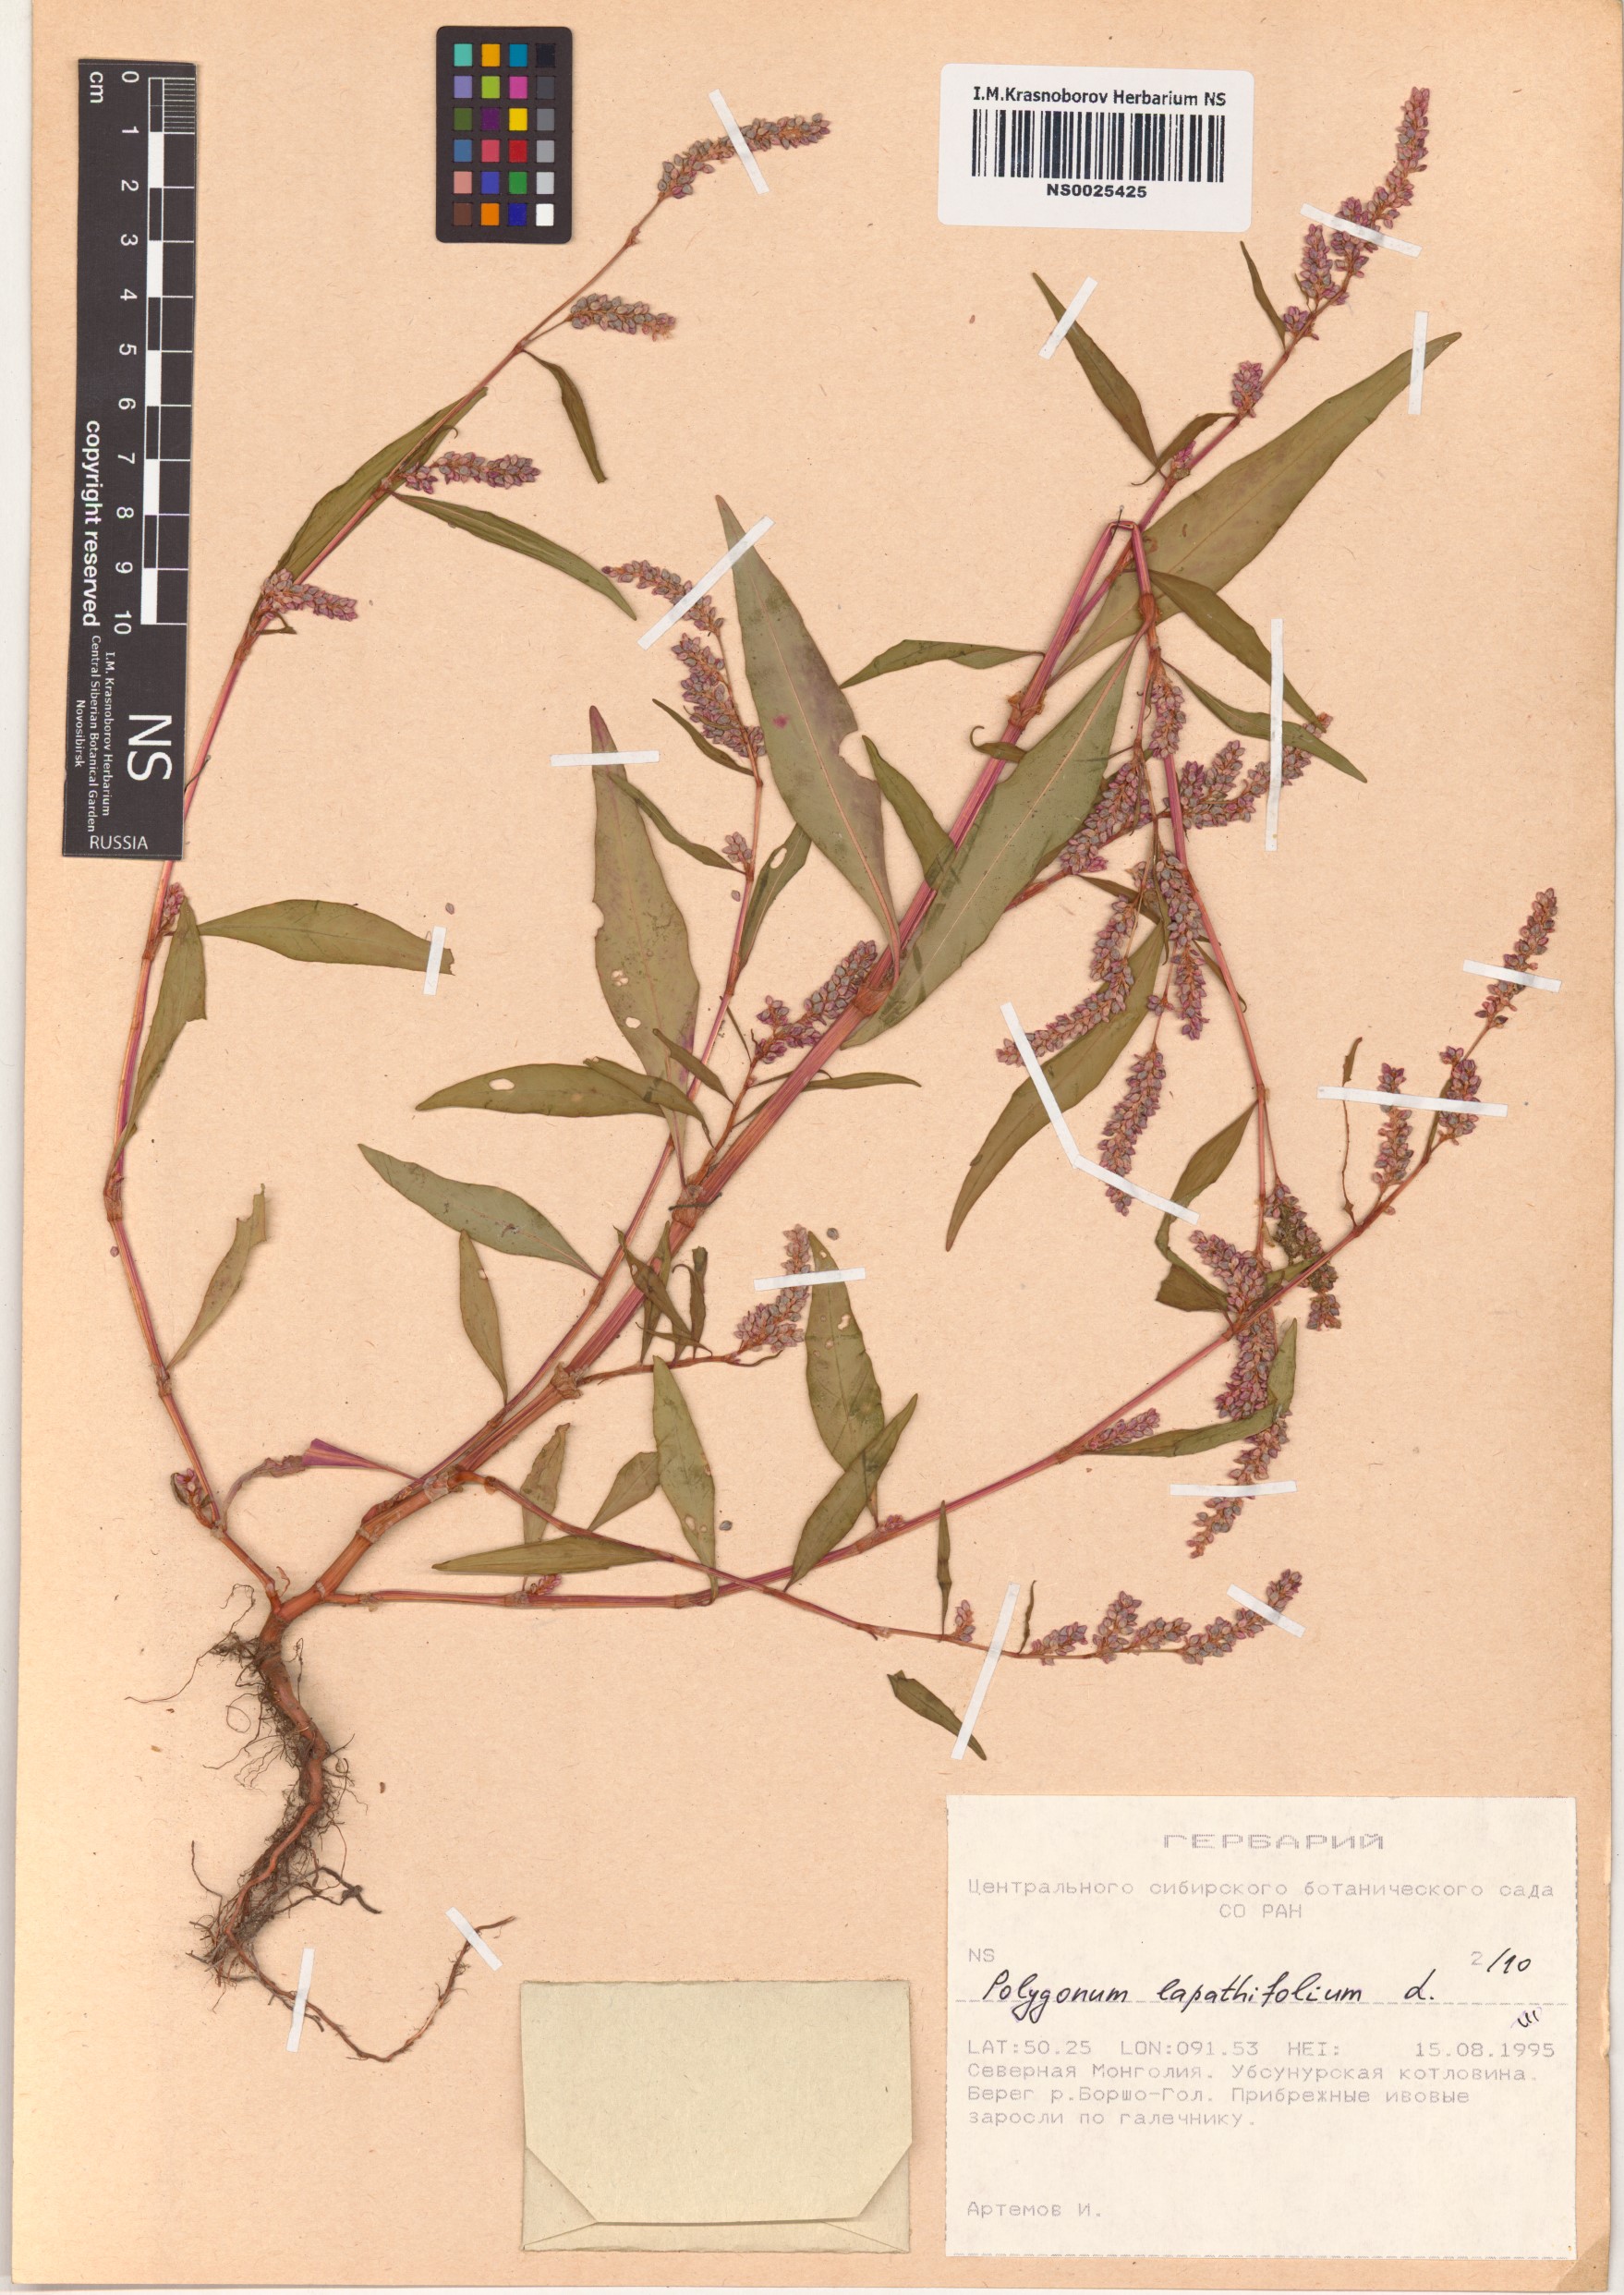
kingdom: Plantae
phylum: Tracheophyta
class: Magnoliopsida
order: Caryophyllales
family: Polygonaceae
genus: Persicaria
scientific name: Persicaria lapathifolia
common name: Curlytop knotweed
